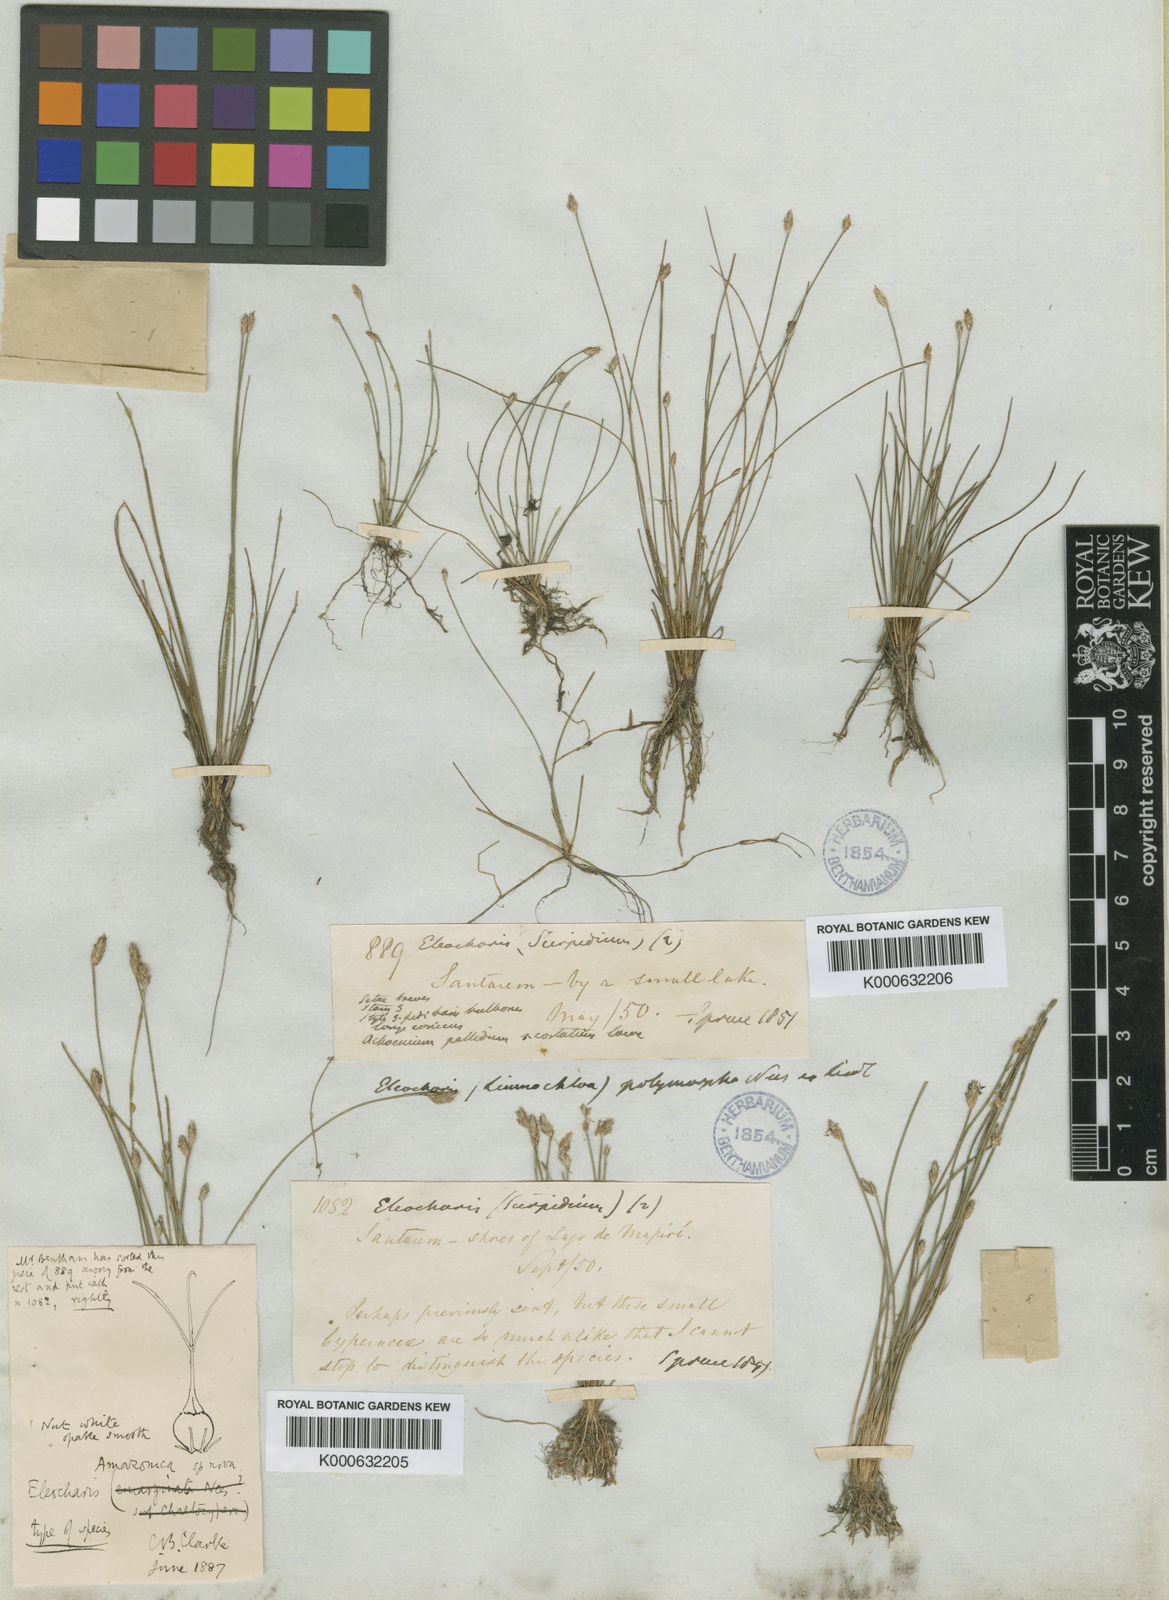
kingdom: Plantae
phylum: Tracheophyta
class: Liliopsida
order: Poales
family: Cyperaceae
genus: Eleocharis
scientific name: Eleocharis amazonica
